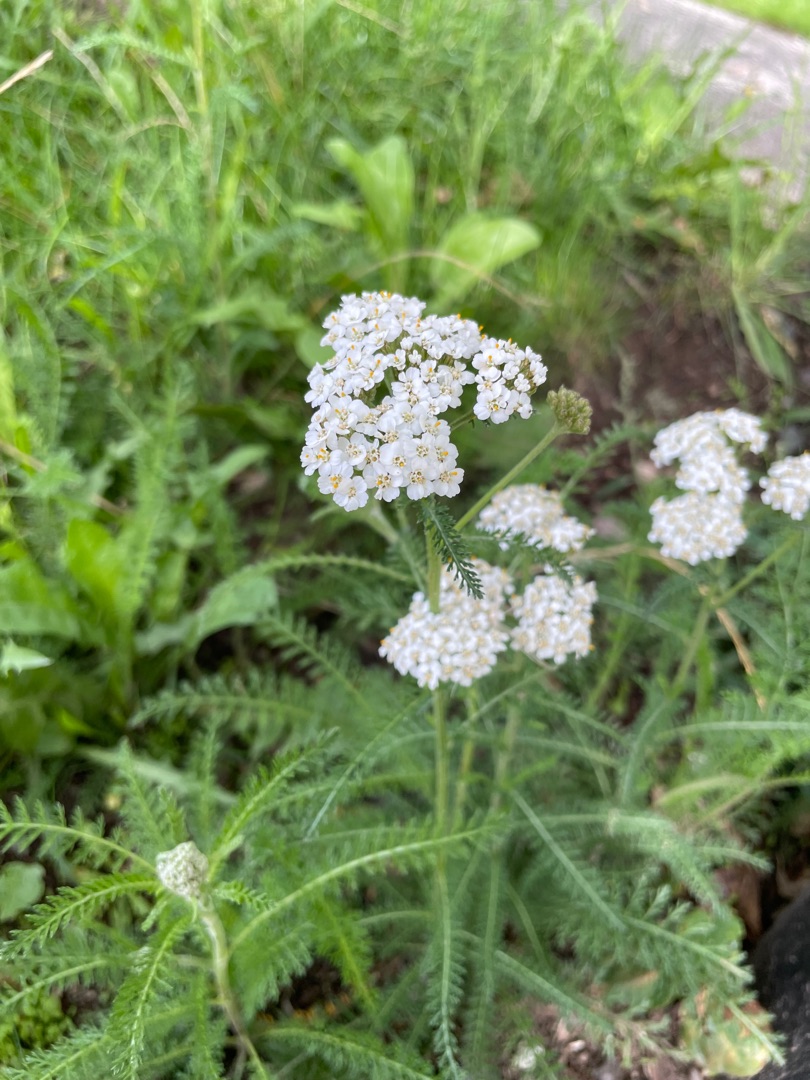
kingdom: Plantae
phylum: Tracheophyta
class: Magnoliopsida
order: Asterales
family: Asteraceae
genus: Achillea
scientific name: Achillea millefolium
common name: Almindelig røllike
